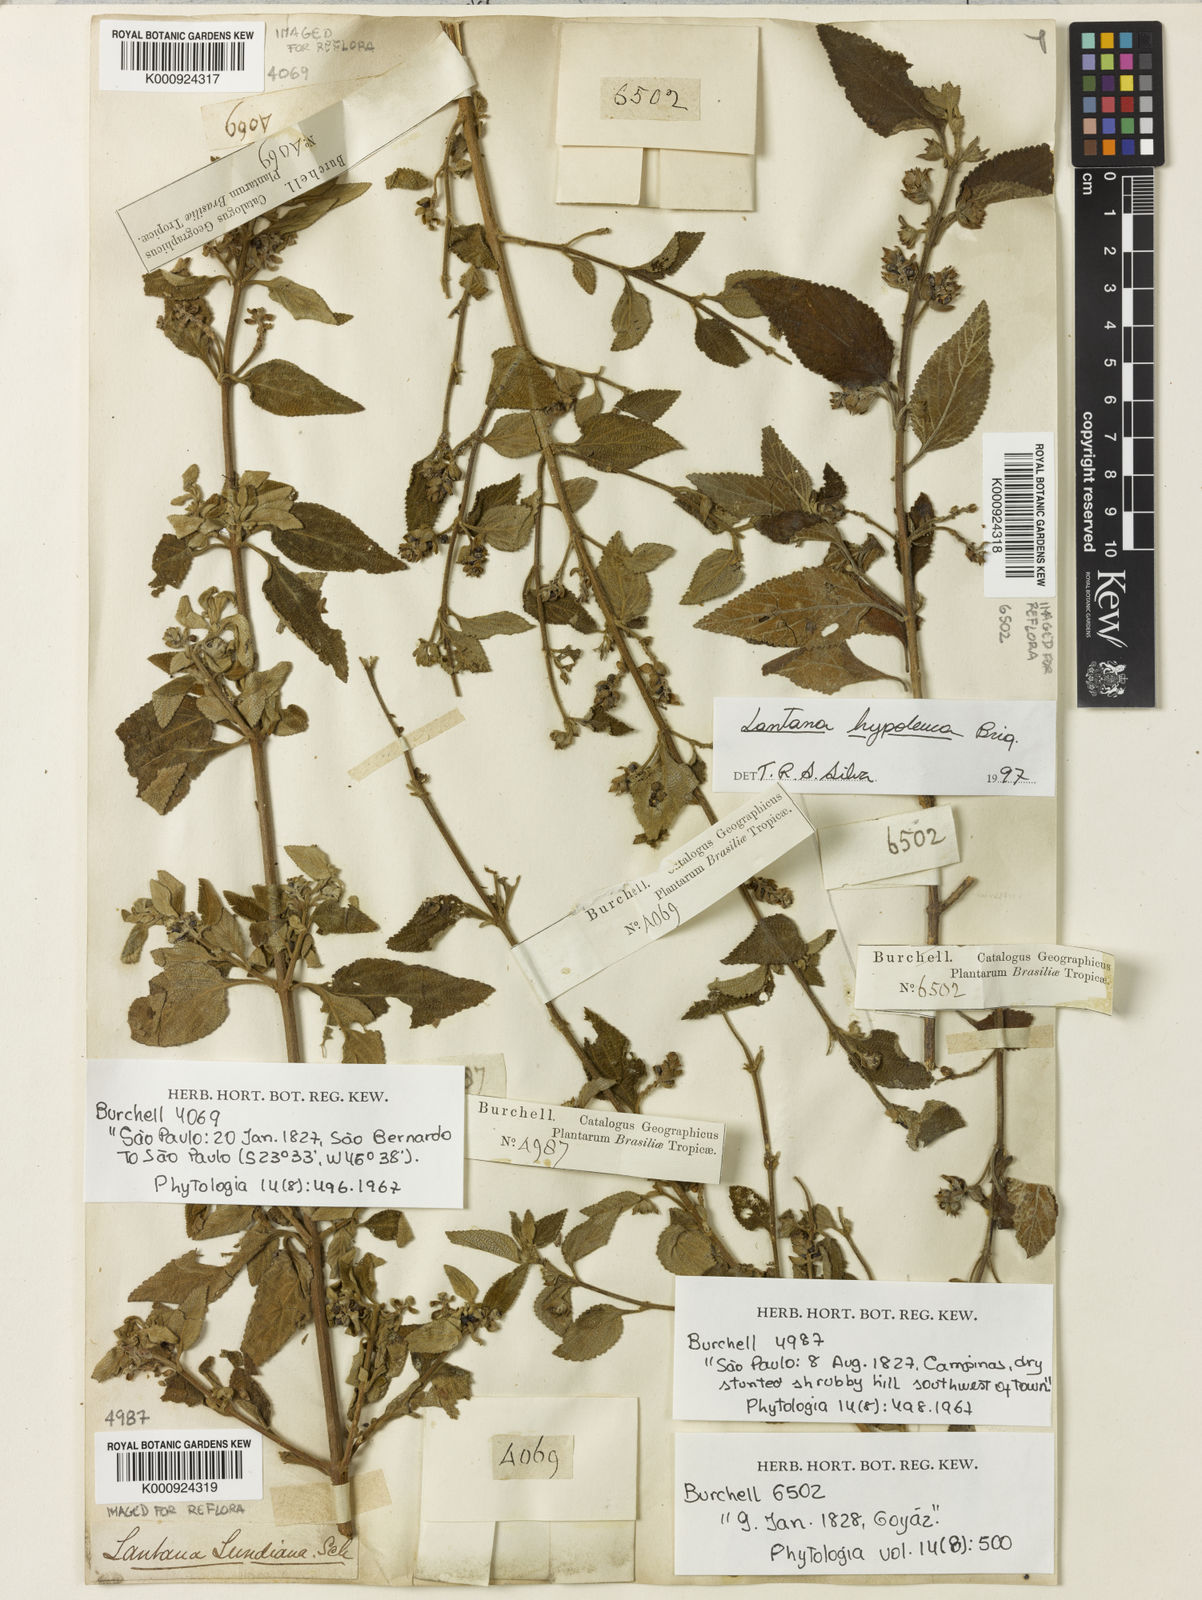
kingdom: Plantae
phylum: Tracheophyta
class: Magnoliopsida
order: Lamiales
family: Verbenaceae
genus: Lantana
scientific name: Lantana hypoleuca
